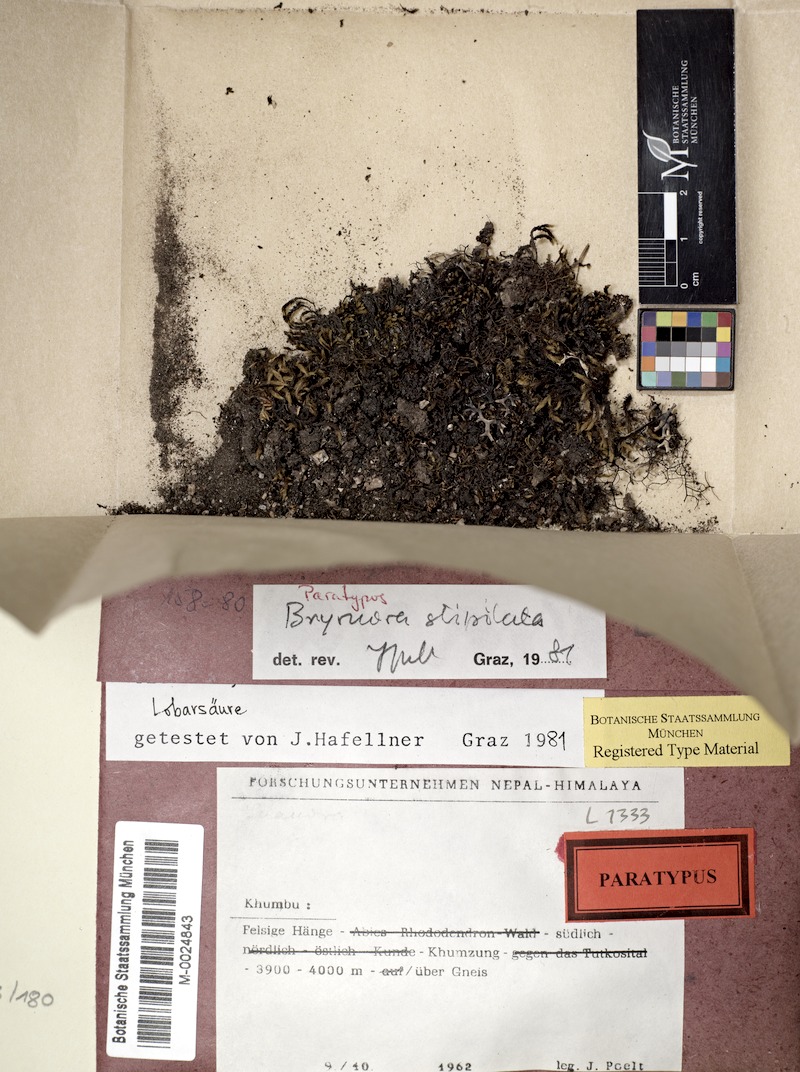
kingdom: Fungi
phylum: Ascomycota
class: Lecanoromycetes
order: Lecanorales
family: Lecanoraceae
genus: Bryonora
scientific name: Bryonora stipitata
